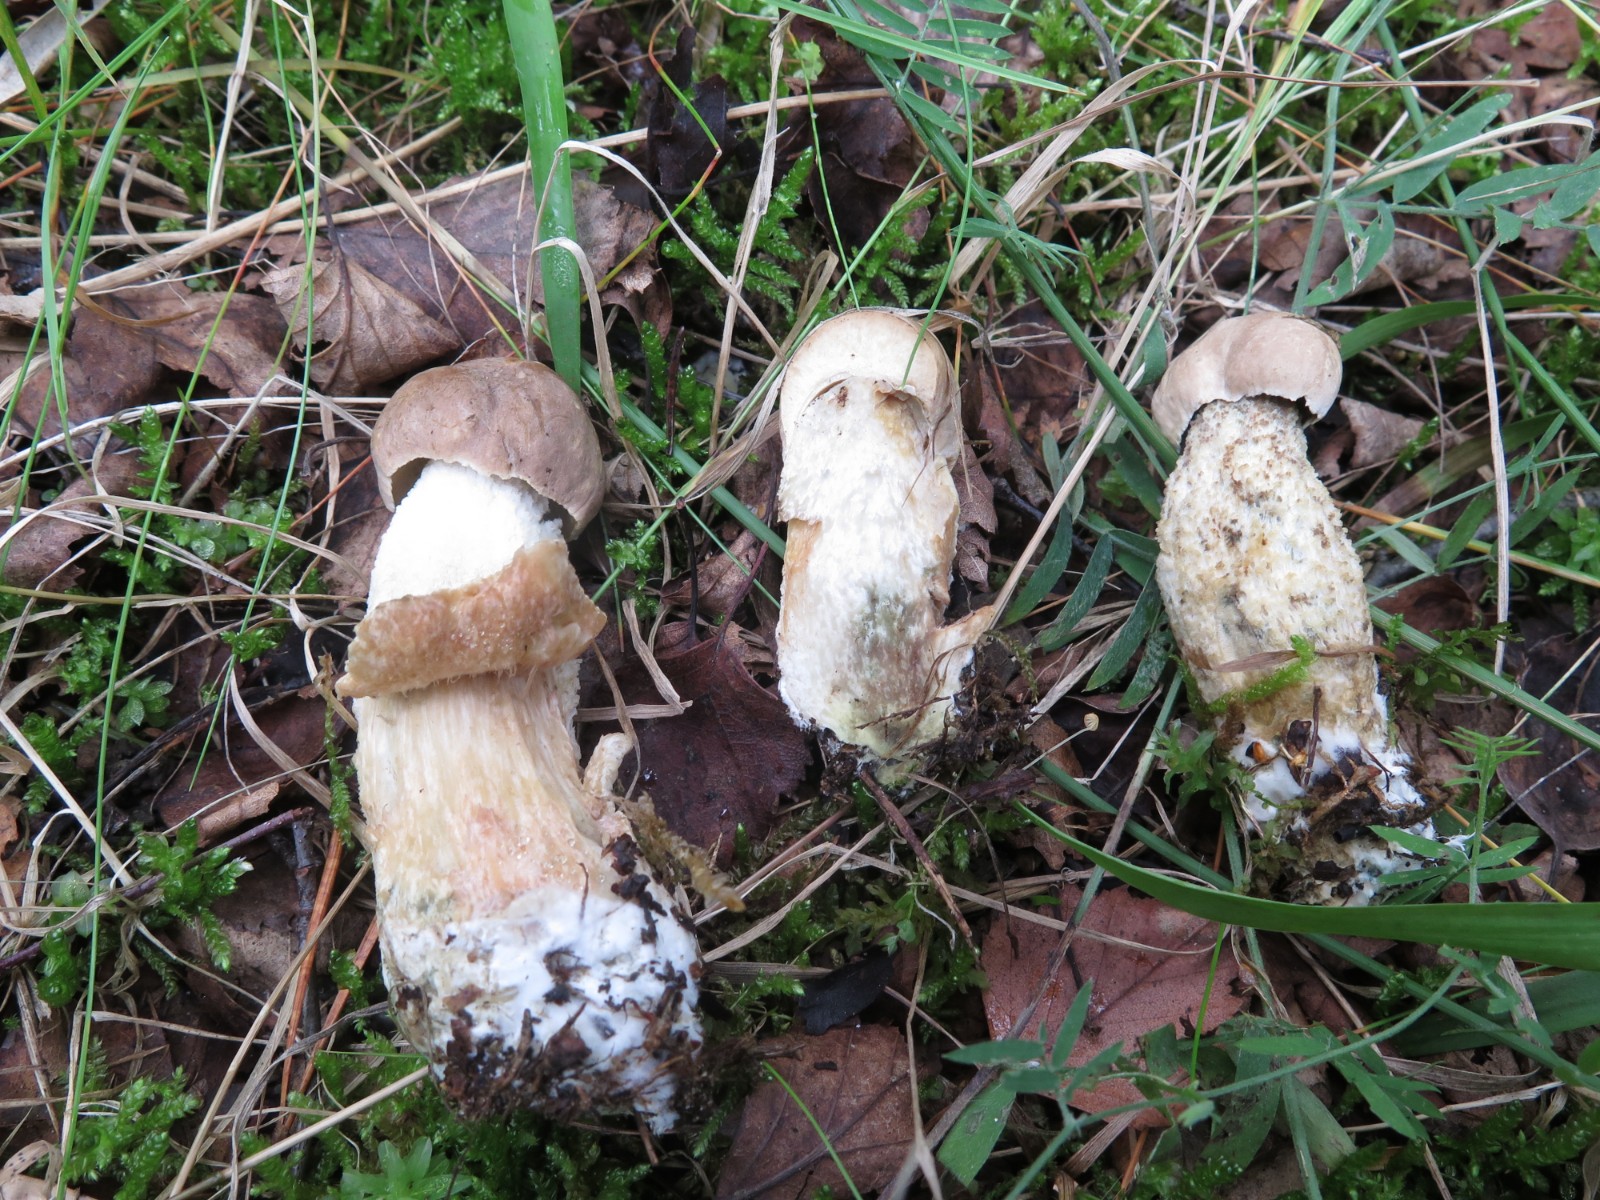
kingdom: Fungi
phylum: Basidiomycota
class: Agaricomycetes
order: Boletales
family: Boletaceae
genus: Leccinum
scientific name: Leccinum cyaneobasileucum
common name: almindelig skælrørhat
